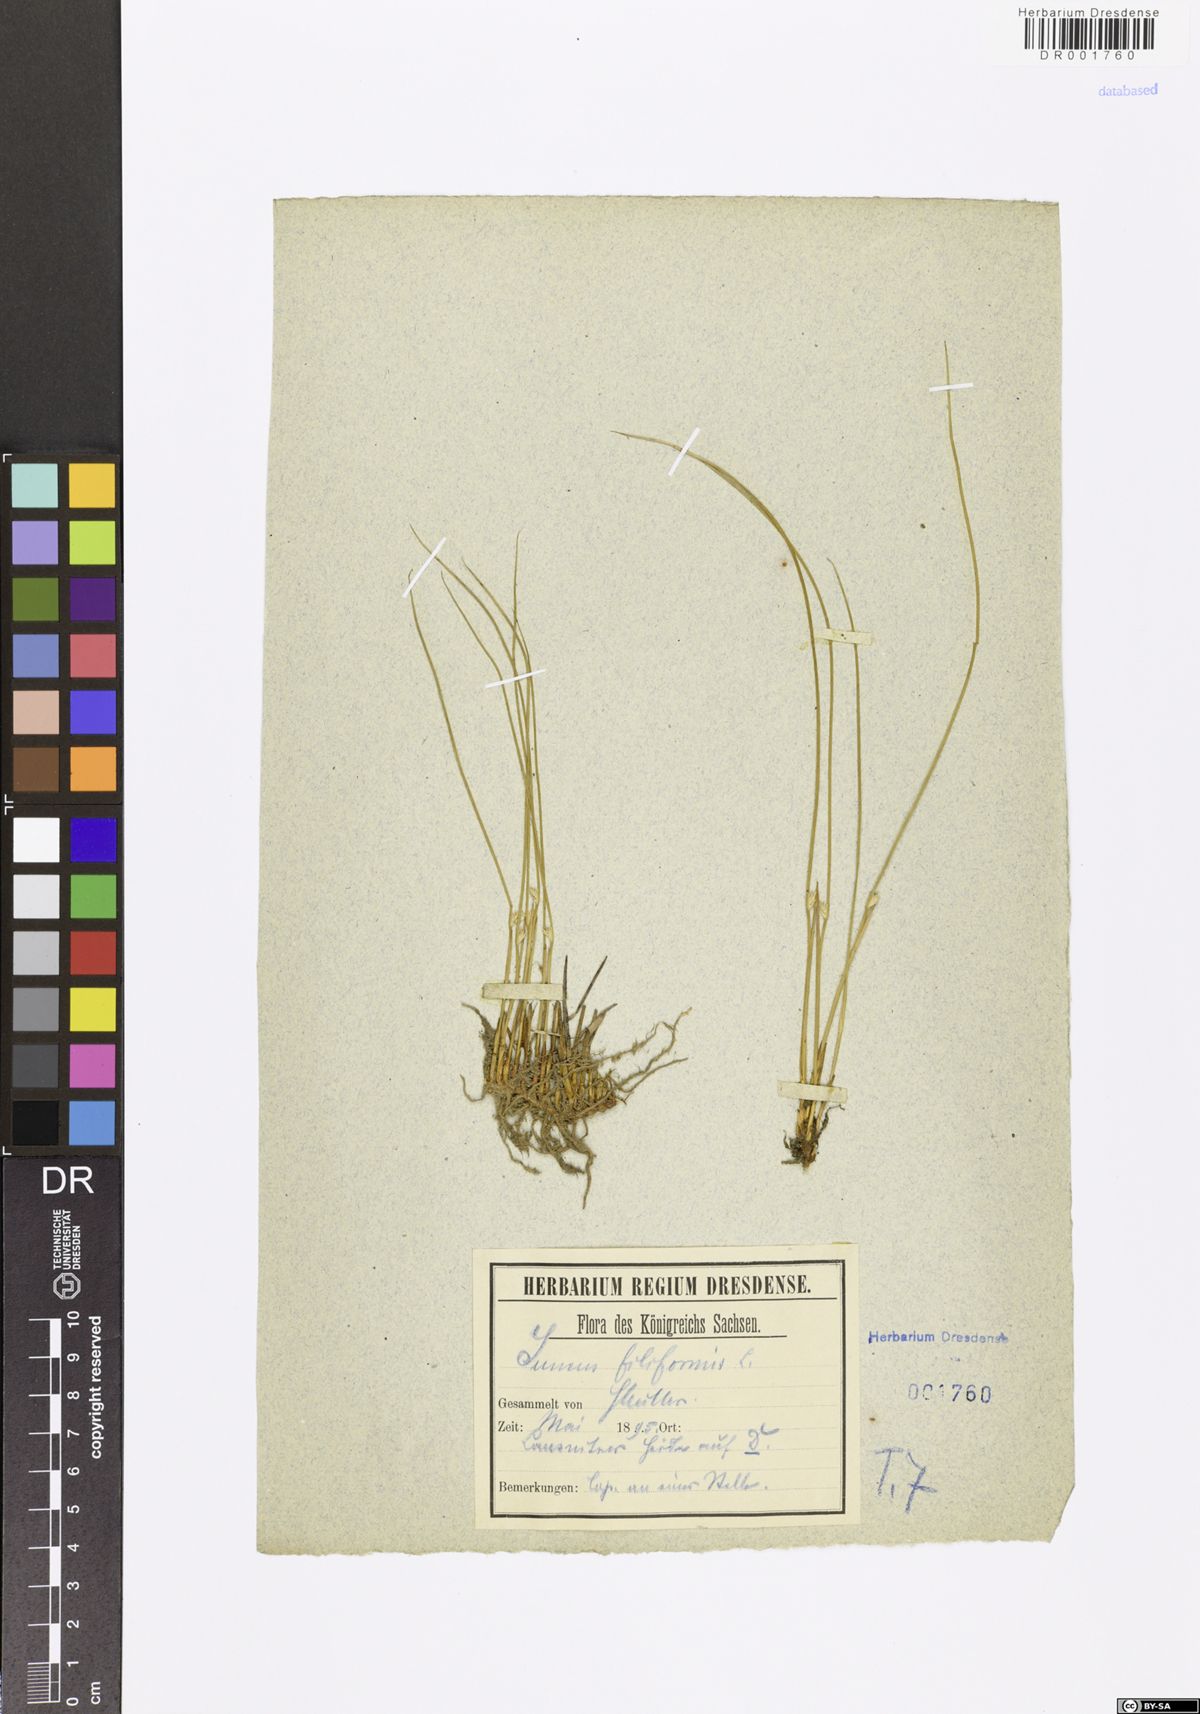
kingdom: Plantae
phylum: Tracheophyta
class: Liliopsida
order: Poales
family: Juncaceae
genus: Juncus
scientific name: Juncus inflexus
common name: Hard rush
